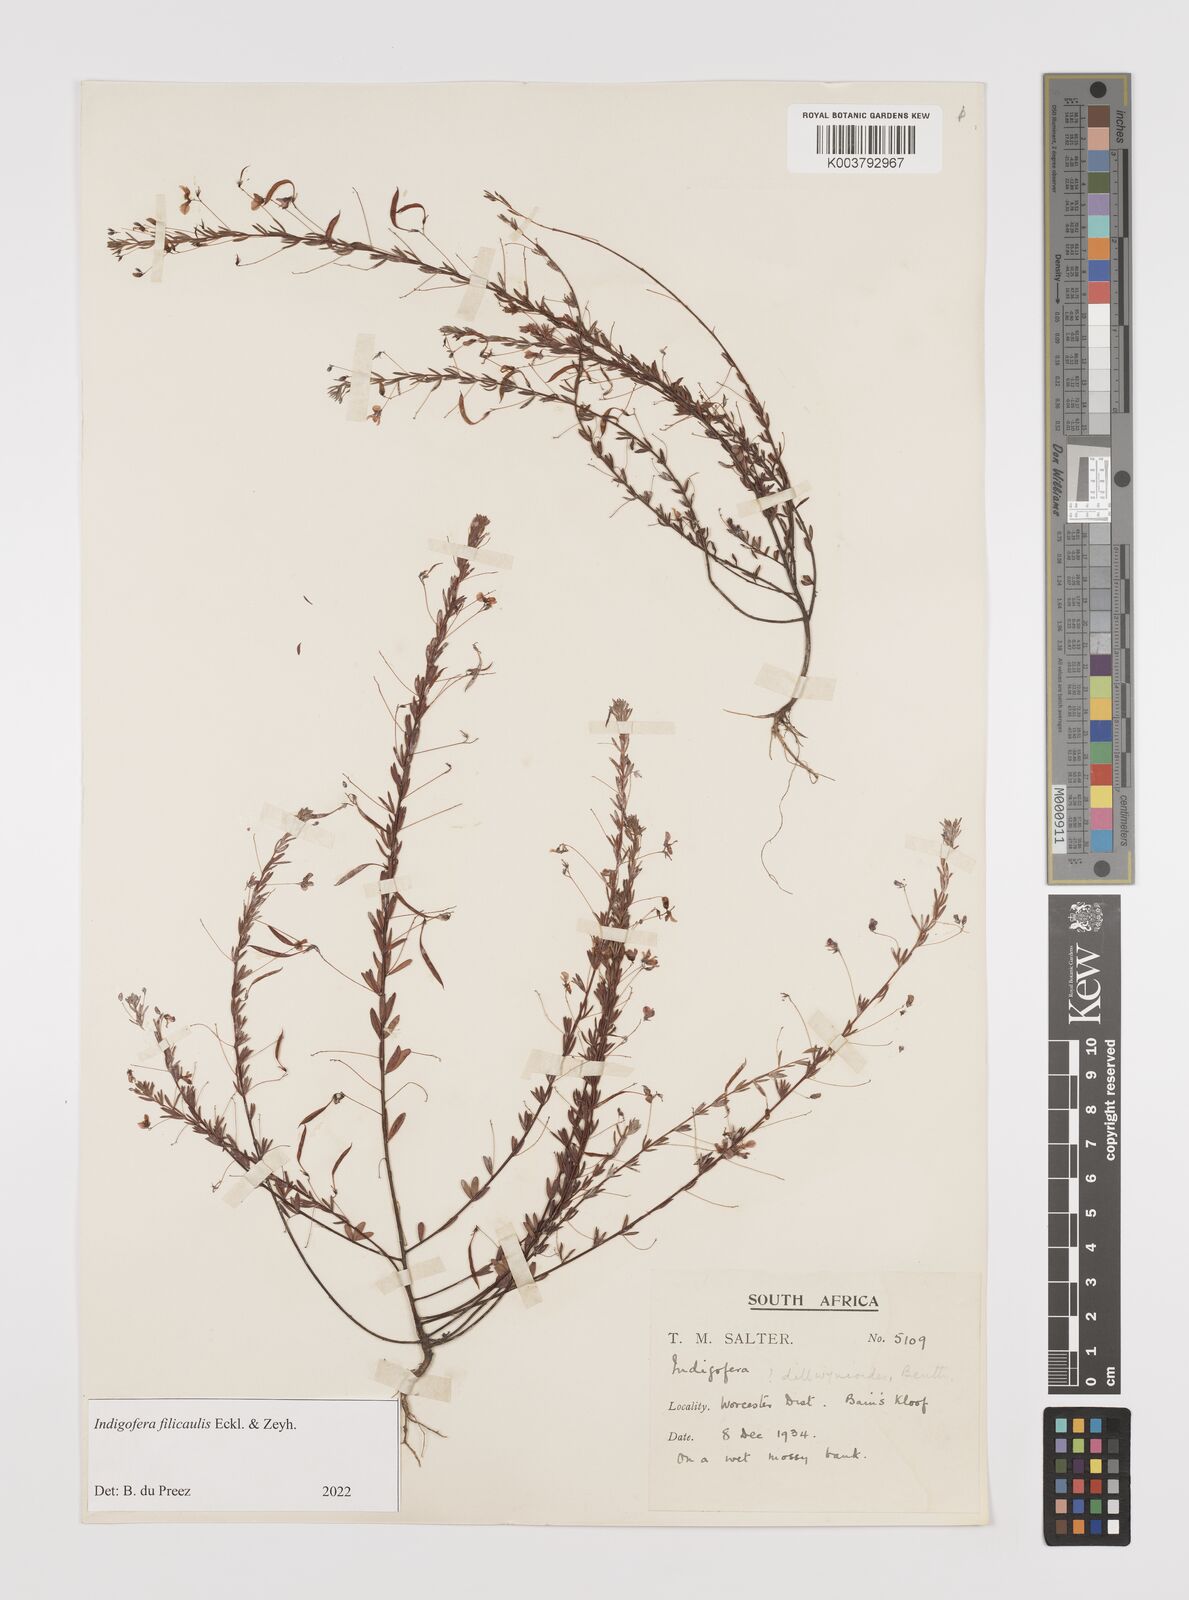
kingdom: Plantae
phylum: Tracheophyta
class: Magnoliopsida
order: Fabales
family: Fabaceae
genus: Indigofera
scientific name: Indigofera filicaulis
